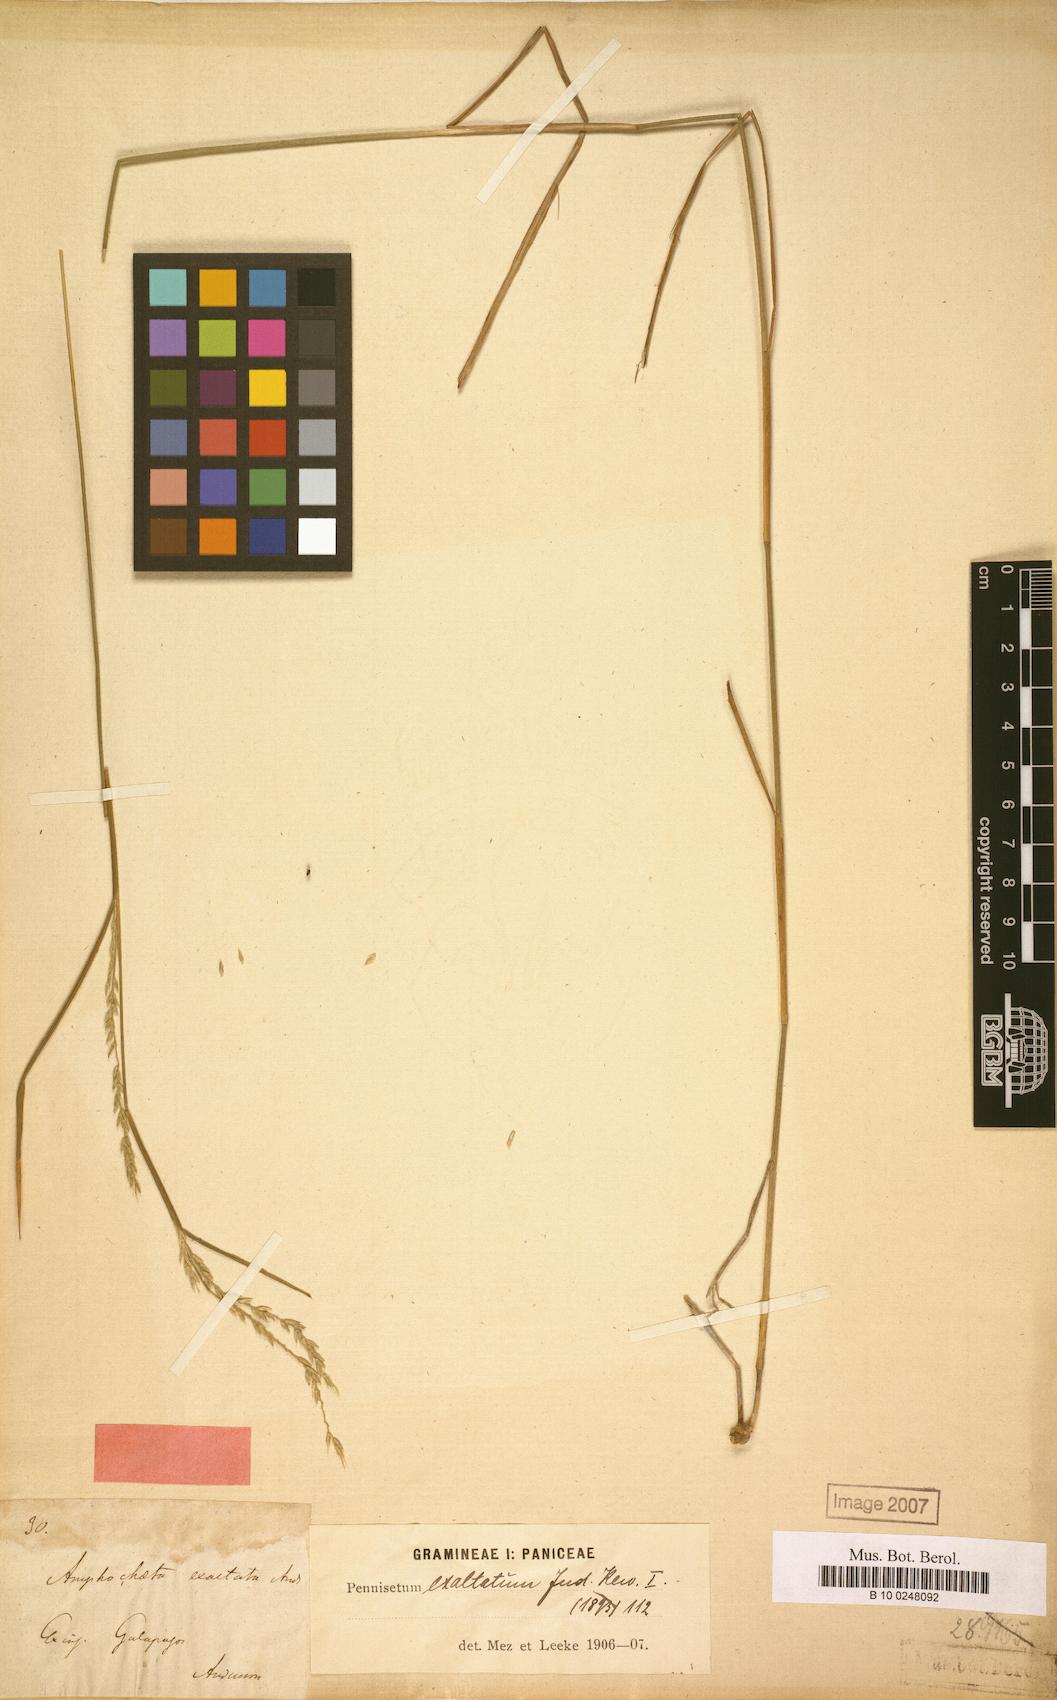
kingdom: Plantae
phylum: Tracheophyta
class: Liliopsida
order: Poales
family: Poaceae
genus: Cenchrus
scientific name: Cenchrus pauper
